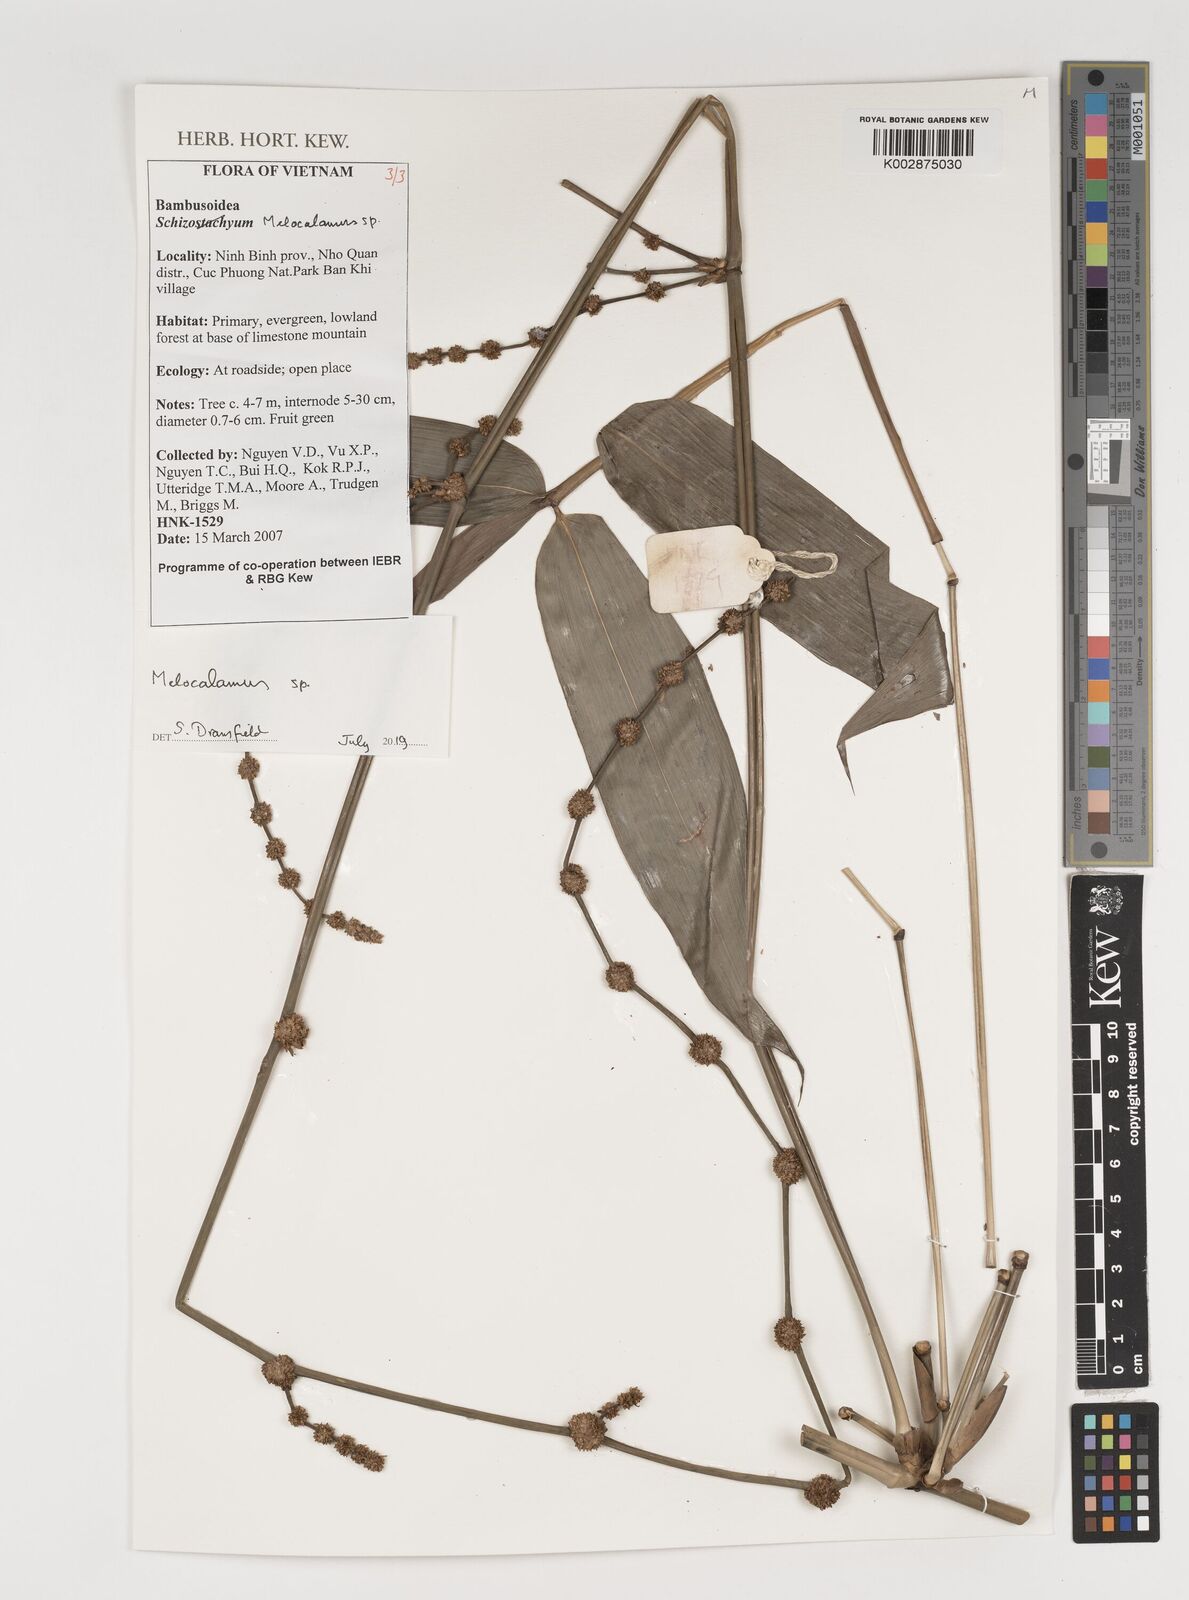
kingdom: Plantae
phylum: Tracheophyta
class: Liliopsida
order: Poales
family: Poaceae
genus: Melocalamus
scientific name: Melocalamus
